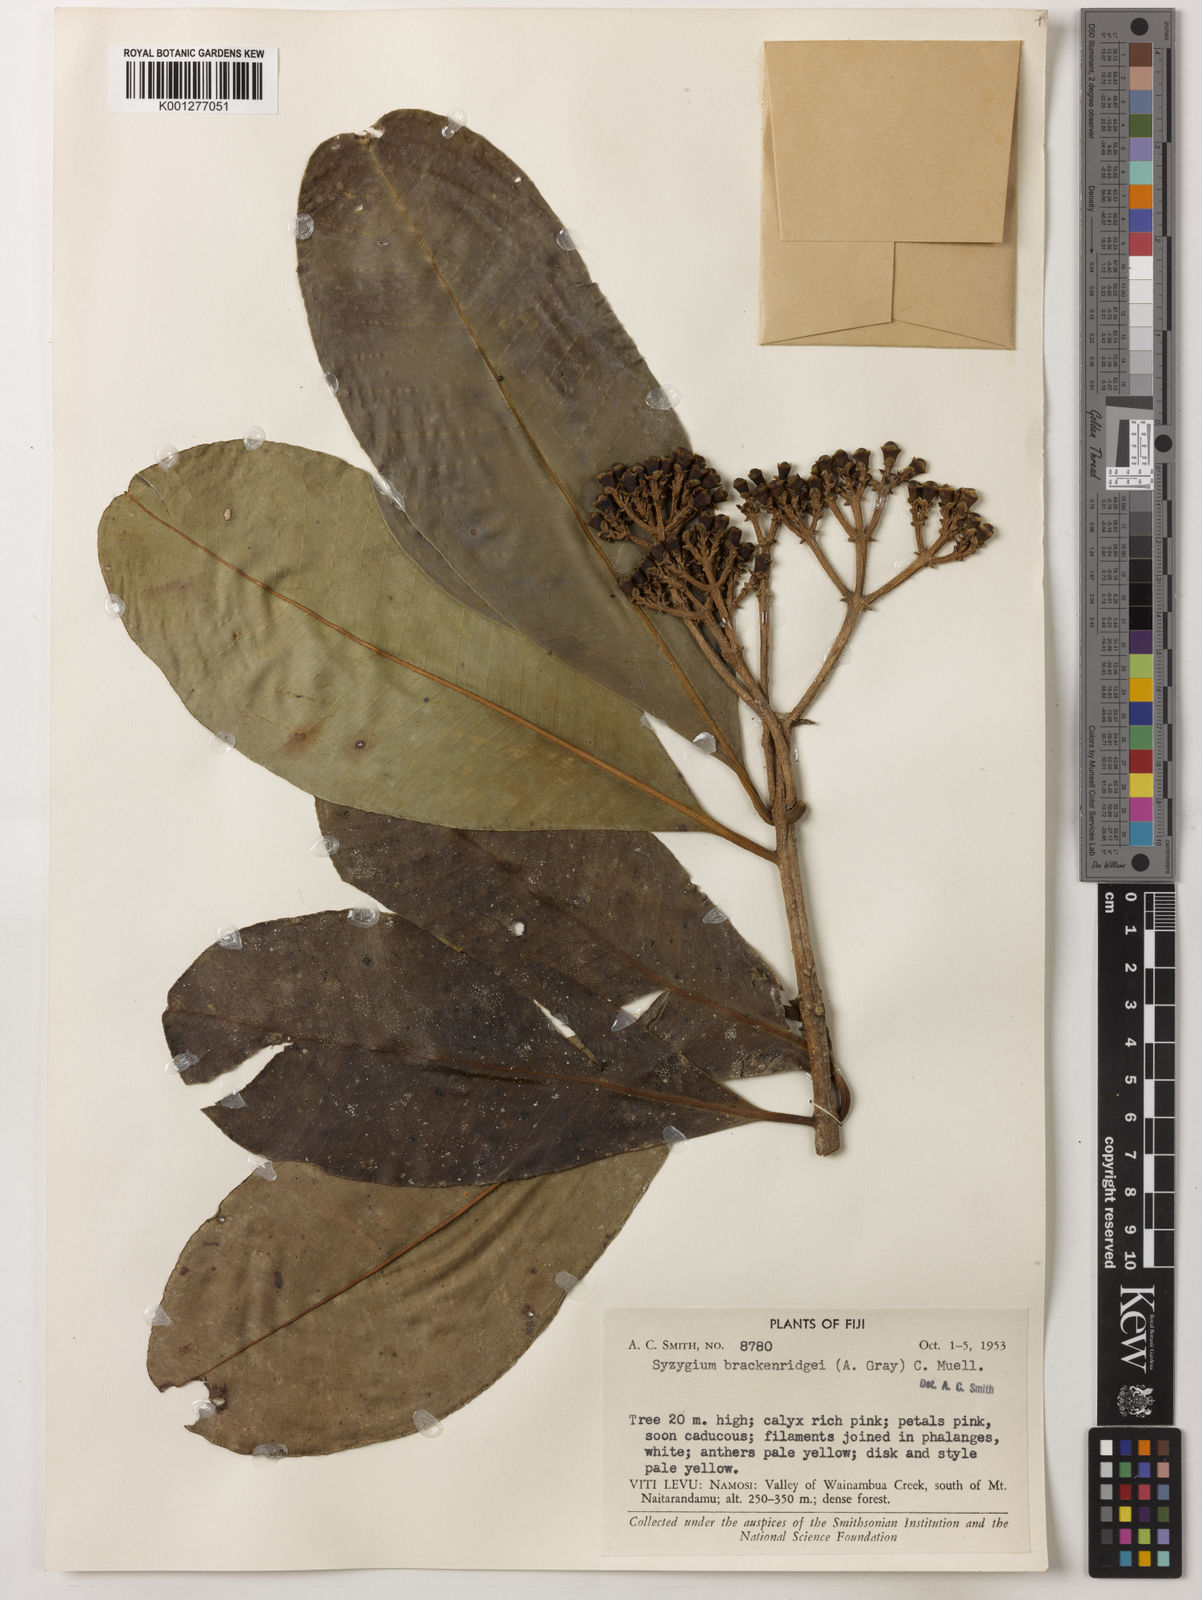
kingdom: Plantae
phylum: Tracheophyta
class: Magnoliopsida
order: Myrtales
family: Myrtaceae
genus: Syzygium
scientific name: Syzygium
